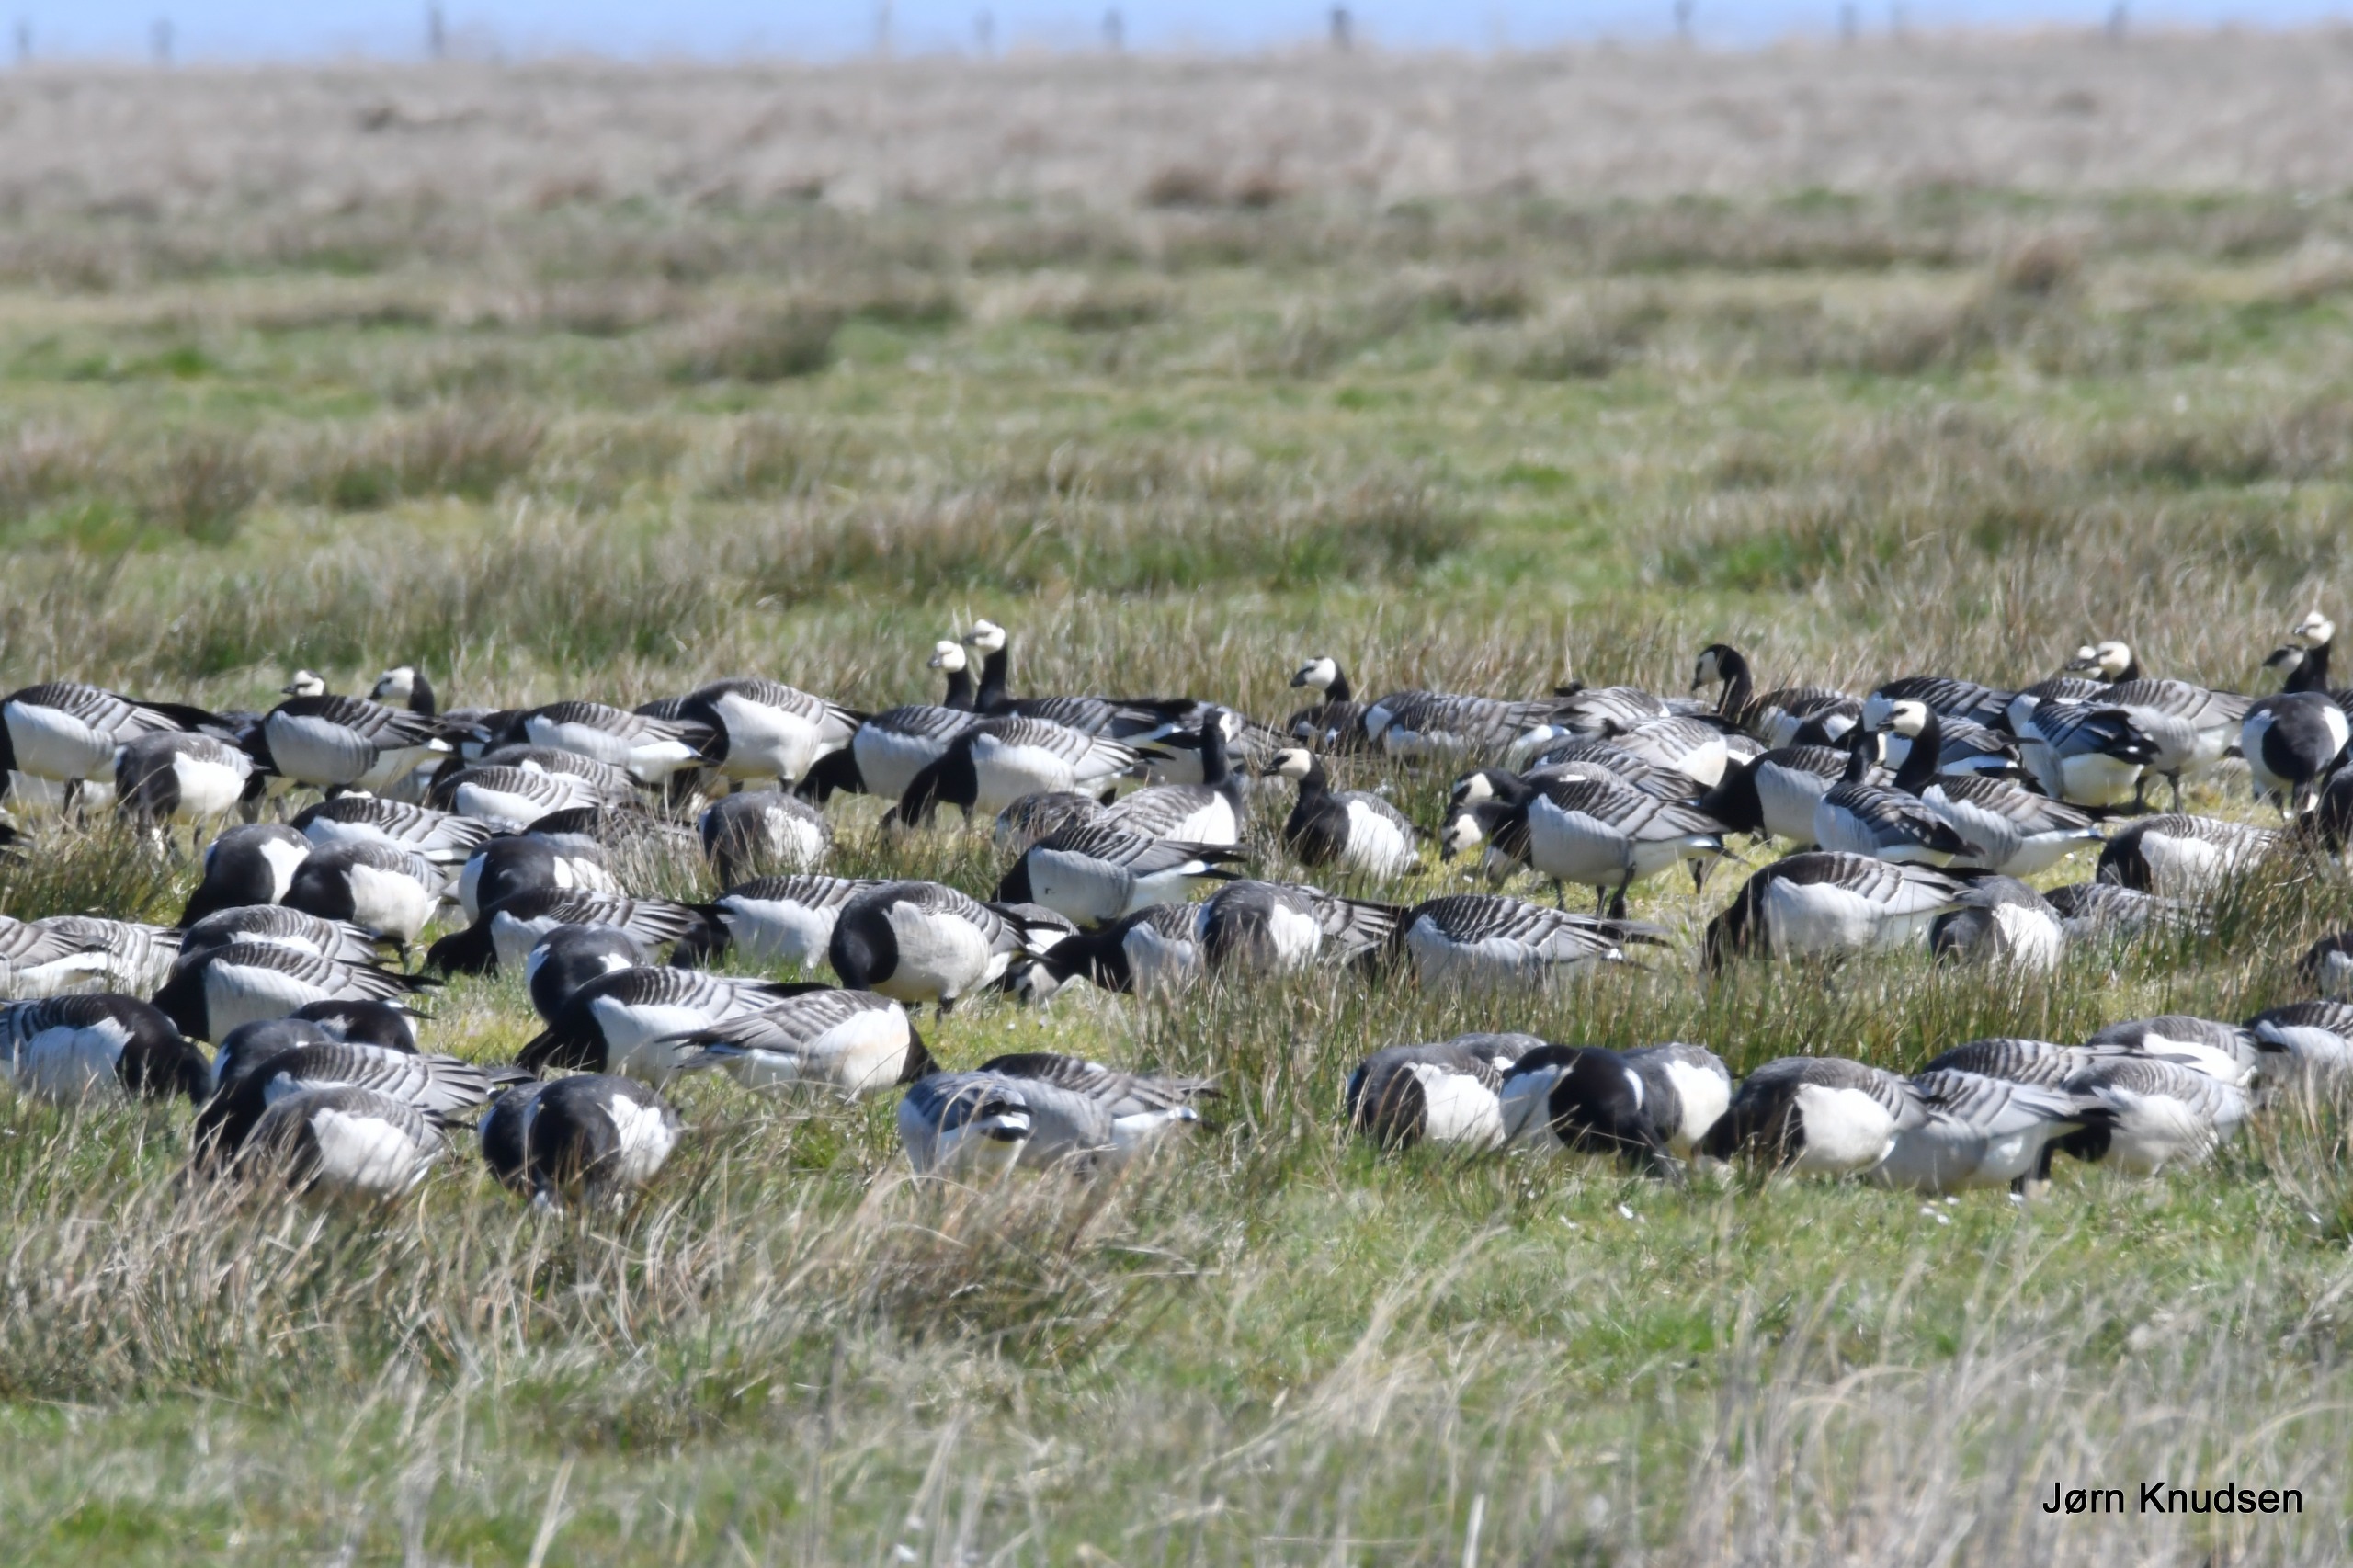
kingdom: Animalia
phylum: Chordata
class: Aves
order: Anseriformes
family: Anatidae
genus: Branta
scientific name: Branta leucopsis
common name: Bramgås
